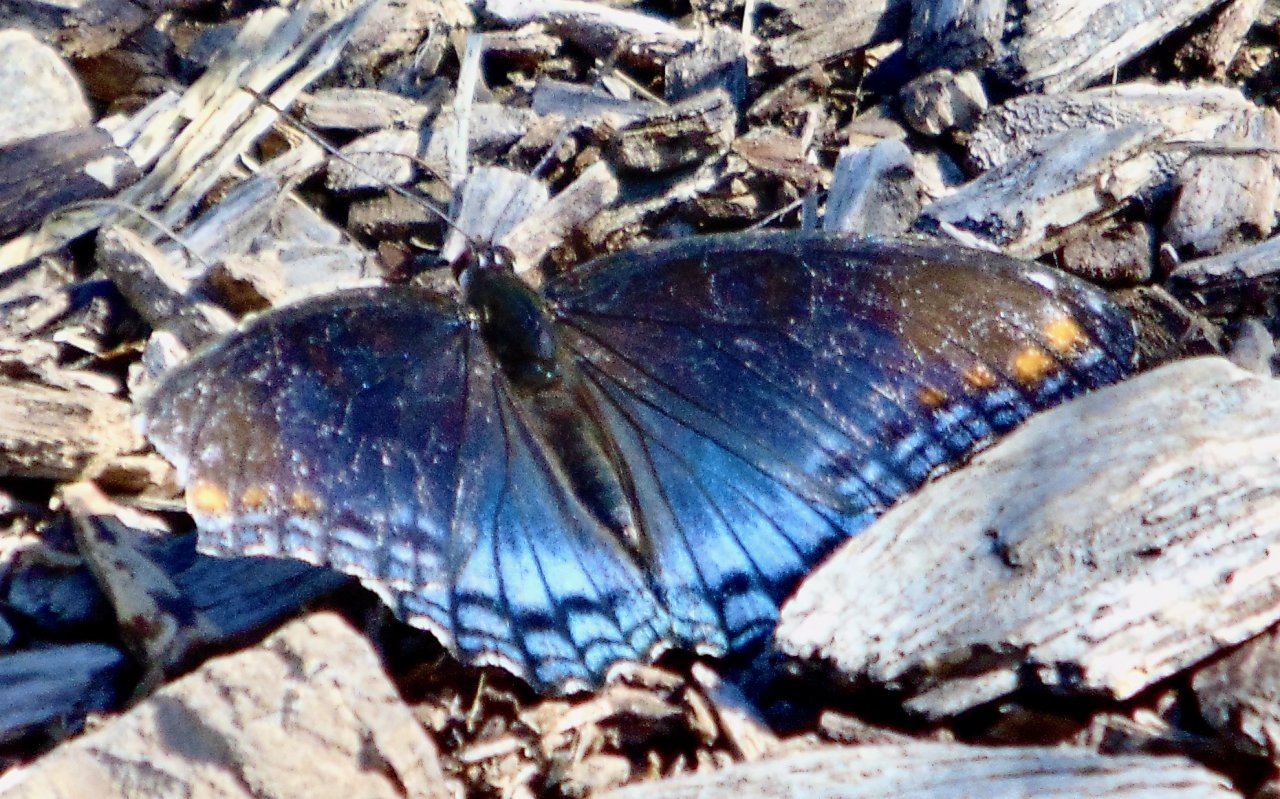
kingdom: Animalia
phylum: Arthropoda
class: Insecta
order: Lepidoptera
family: Nymphalidae
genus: Limenitis
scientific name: Limenitis astyanax
